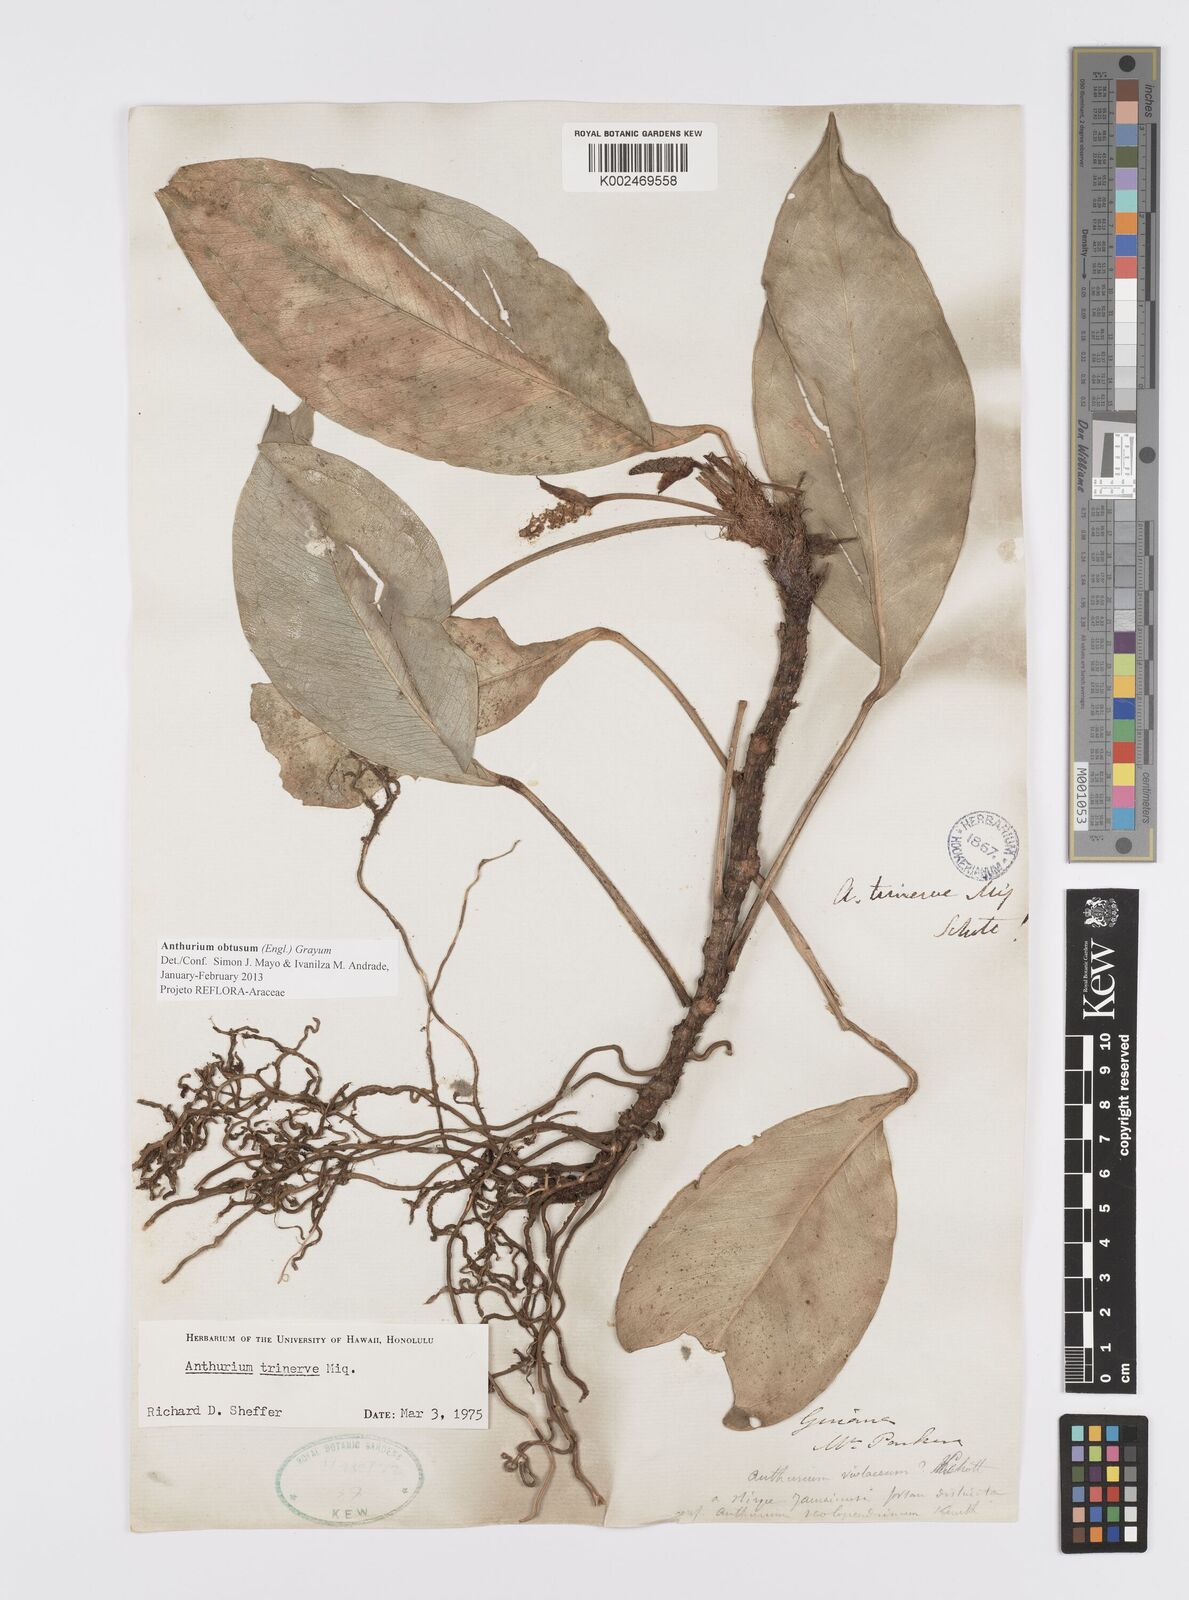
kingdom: Plantae
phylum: Tracheophyta
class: Liliopsida
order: Alismatales
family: Araceae
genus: Anthurium
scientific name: Anthurium obtusum
